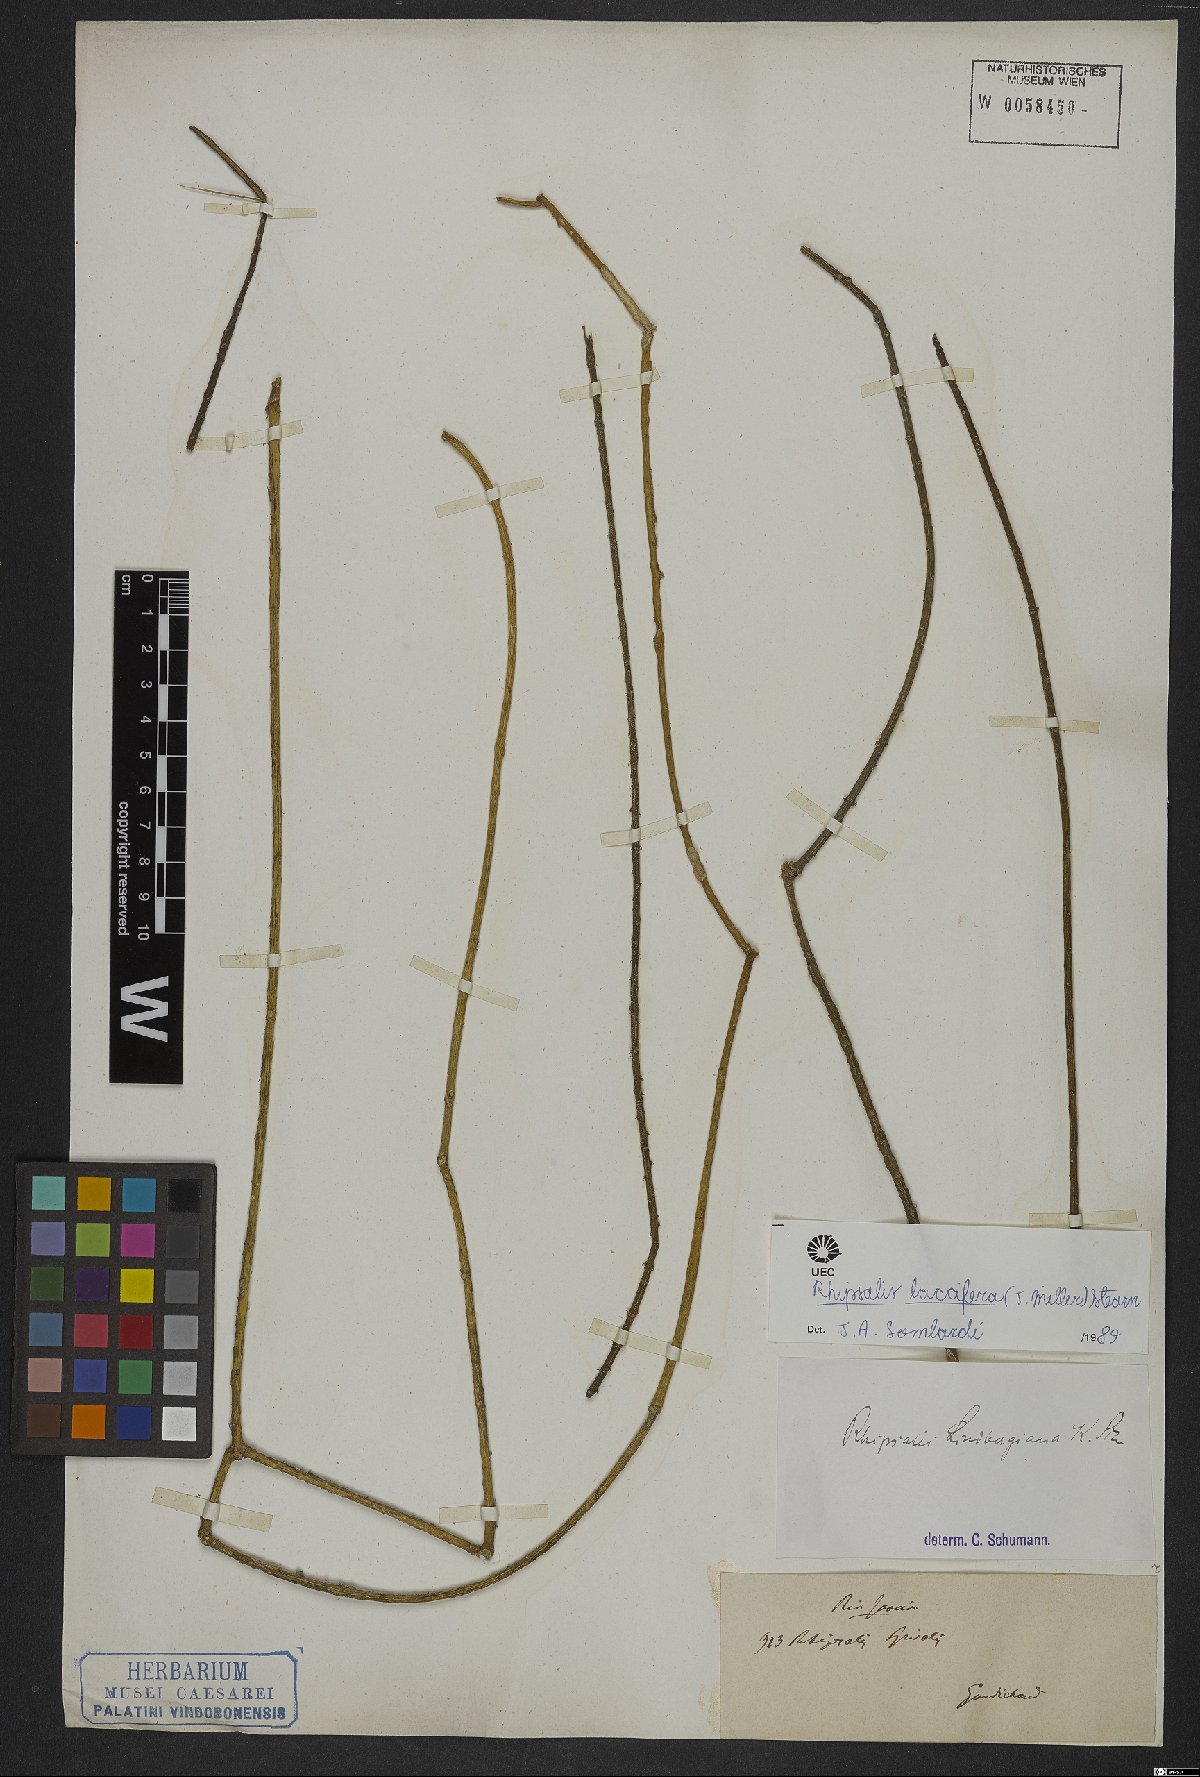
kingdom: Plantae
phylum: Tracheophyta
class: Magnoliopsida
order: Caryophyllales
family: Cactaceae
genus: Rhipsalis
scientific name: Rhipsalis baccifera
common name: Mistletoe cactus
